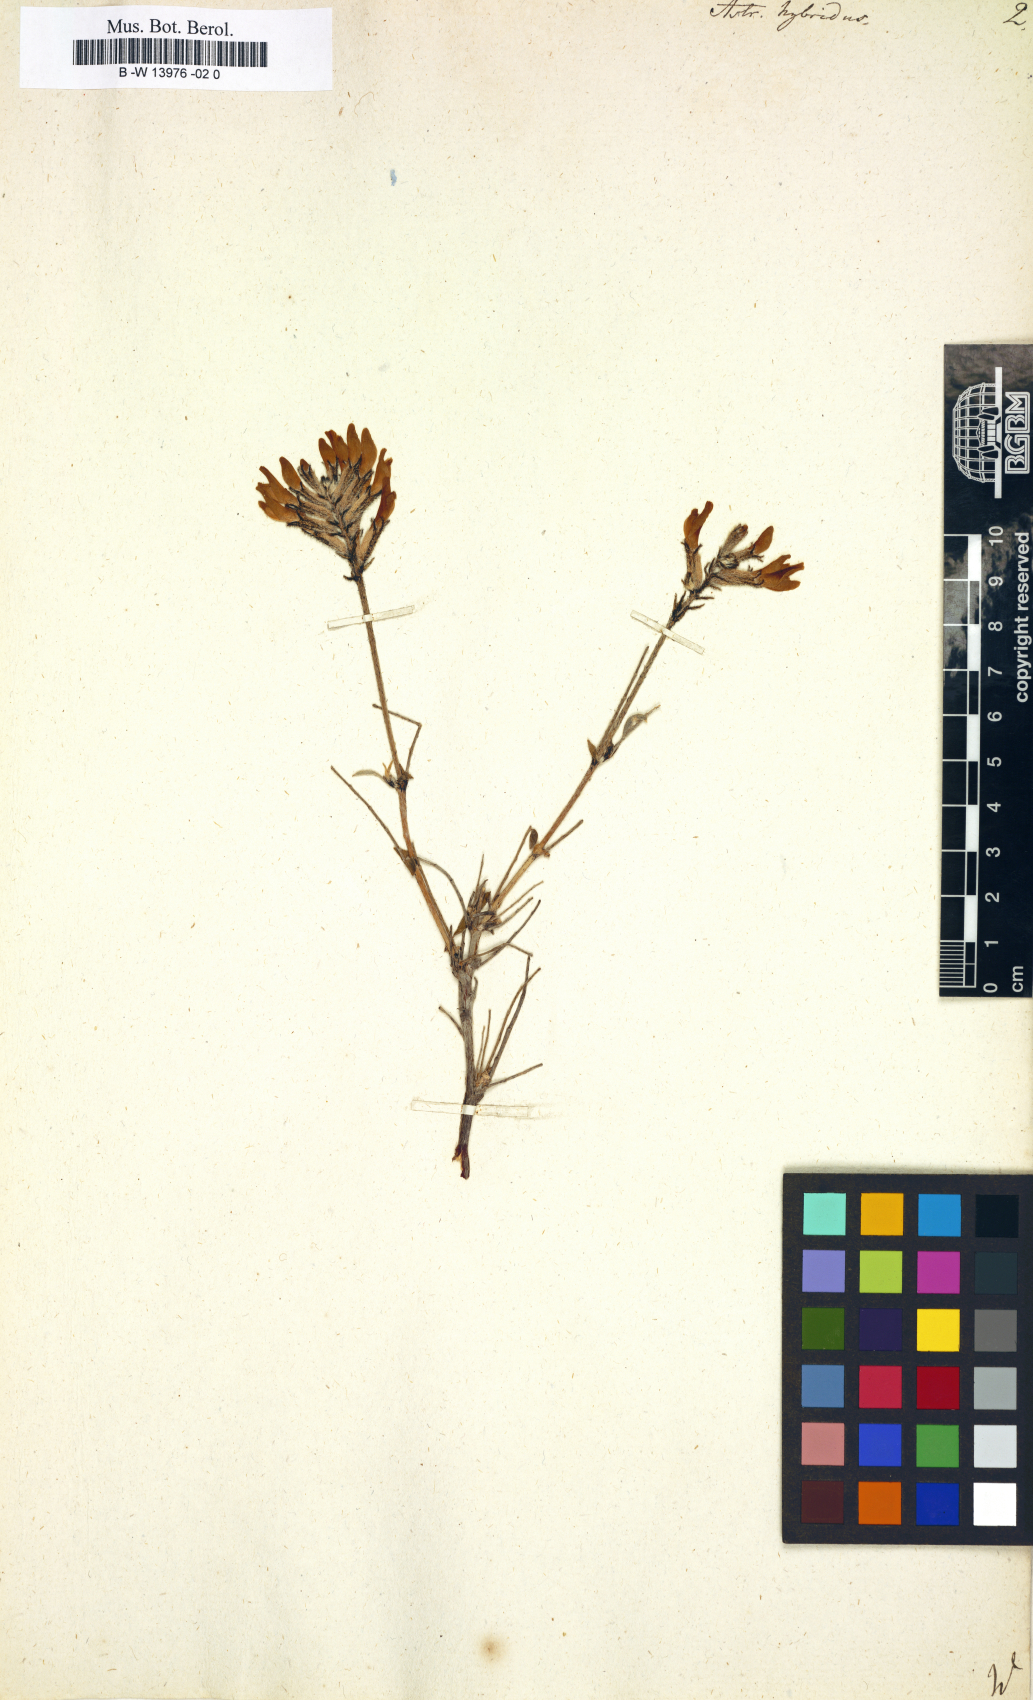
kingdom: Plantae
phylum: Tracheophyta
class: Magnoliopsida
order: Fabales
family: Fabaceae
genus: Astragalus
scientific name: Astragalus hybridus
